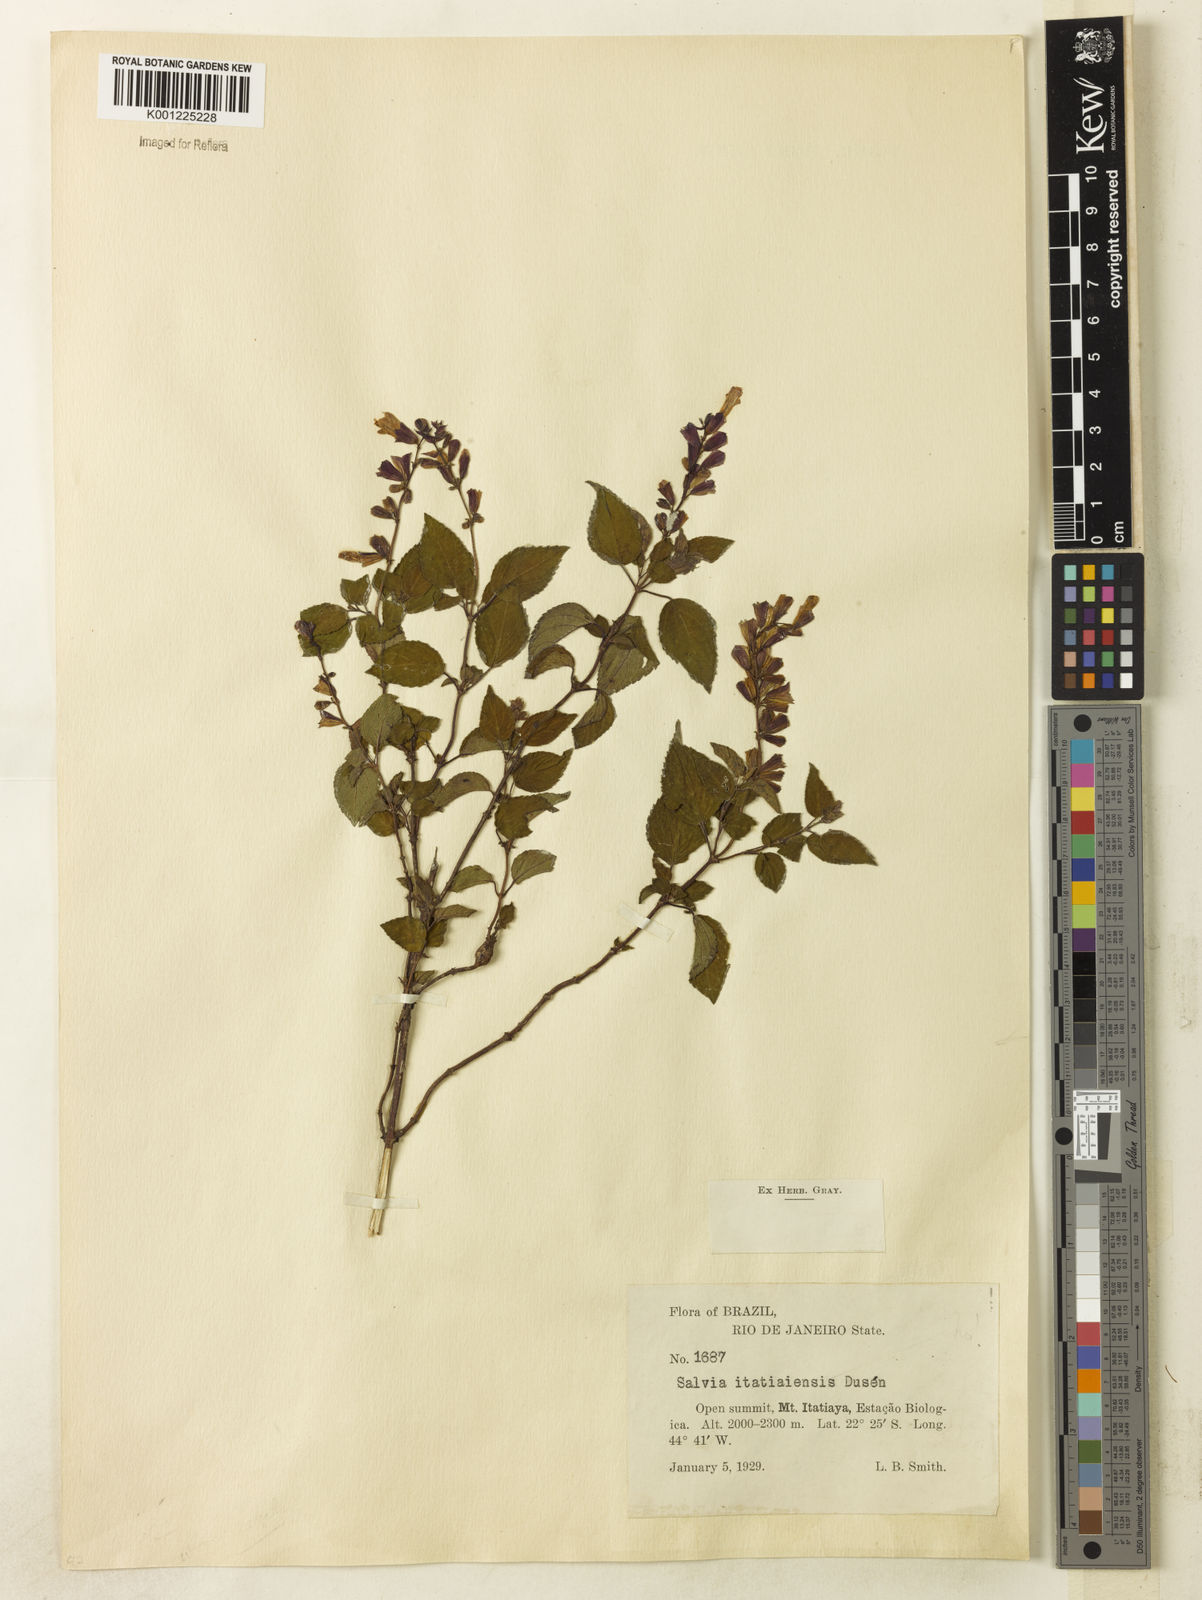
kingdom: Plantae
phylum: Tracheophyta
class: Magnoliopsida
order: Lamiales
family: Lamiaceae
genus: Salvia
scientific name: Salvia
